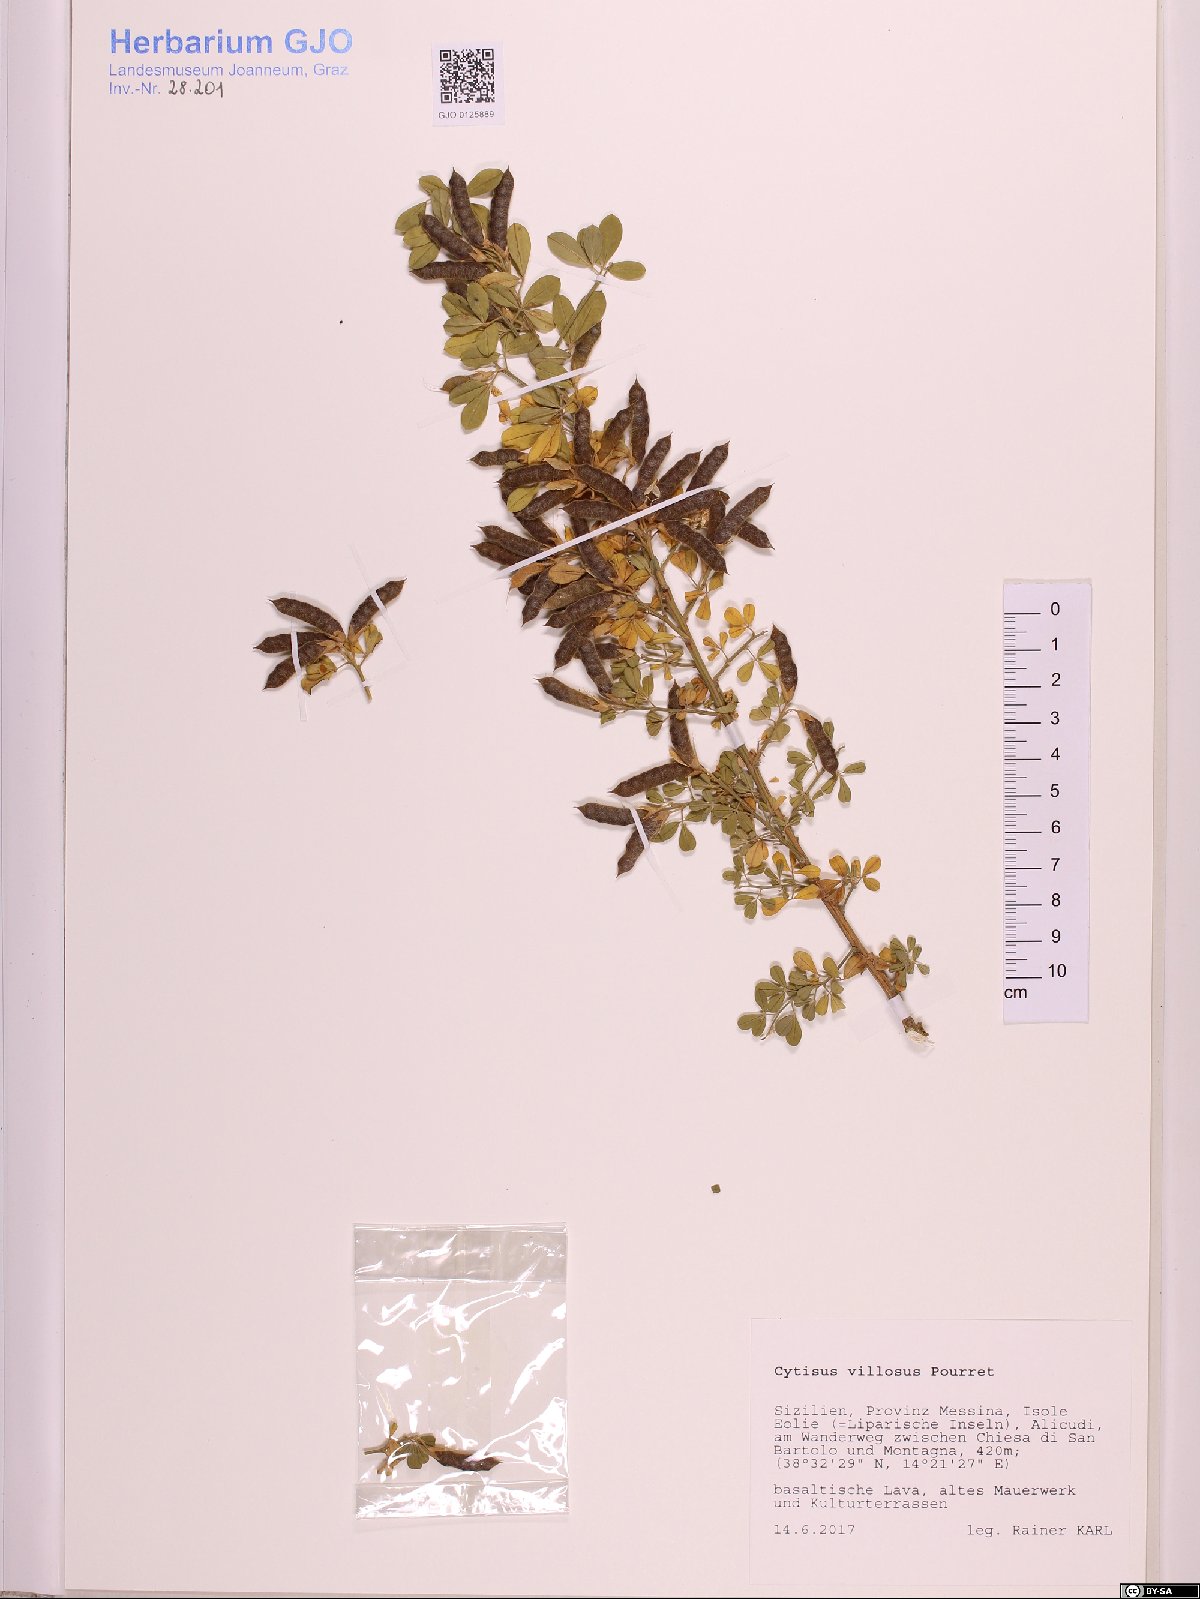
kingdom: Plantae
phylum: Tracheophyta
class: Magnoliopsida
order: Fabales
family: Fabaceae
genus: Cytisus
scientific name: Cytisus villosus
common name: Hairybroom
